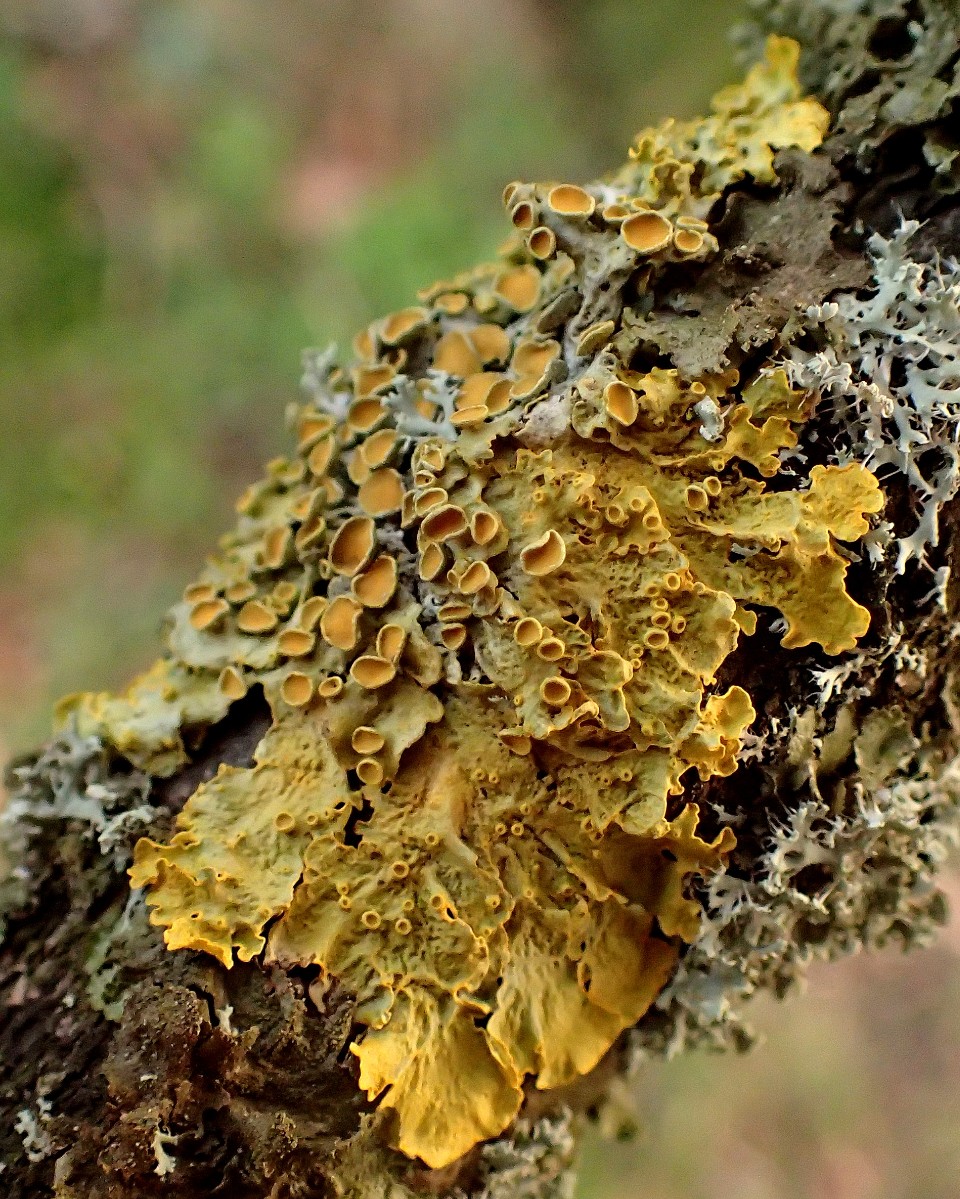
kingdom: Fungi
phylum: Ascomycota
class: Lecanoromycetes
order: Teloschistales
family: Teloschistaceae
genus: Xanthoria
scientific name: Xanthoria parietina
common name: almindelig væggelav
